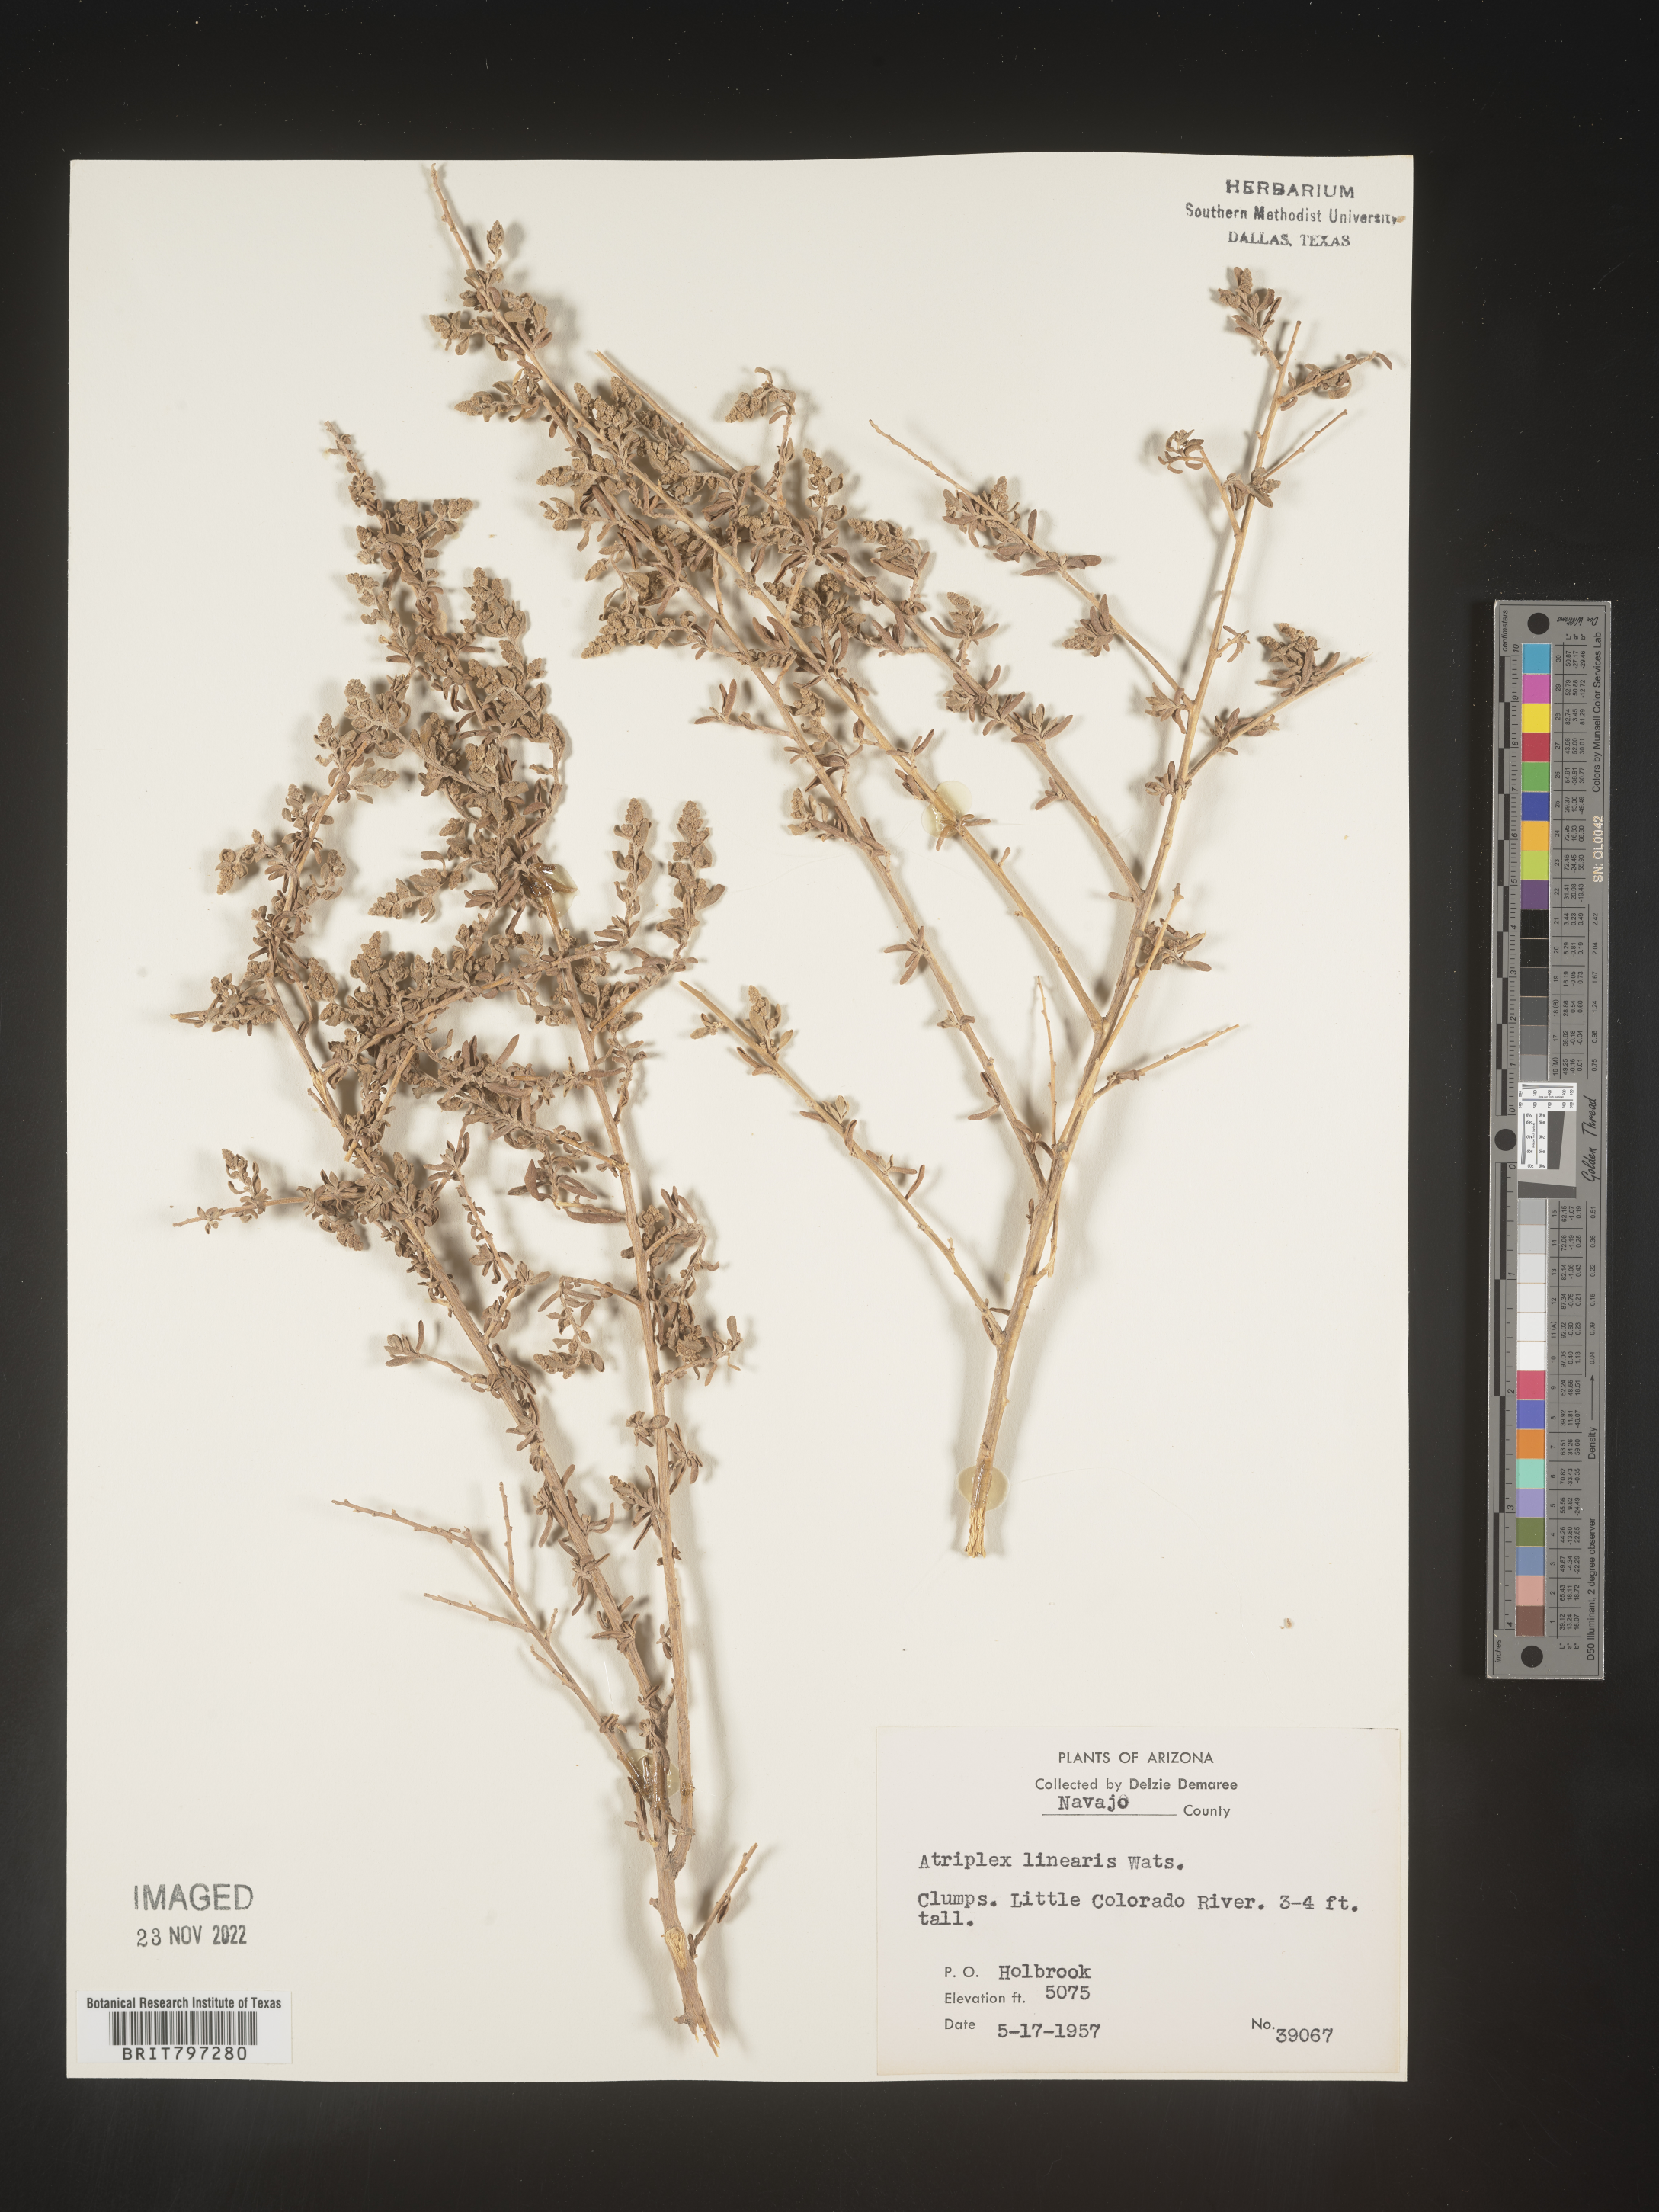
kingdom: Plantae
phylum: Tracheophyta
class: Magnoliopsida
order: Caryophyllales
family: Amaranthaceae
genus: Atriplex
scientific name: Atriplex
